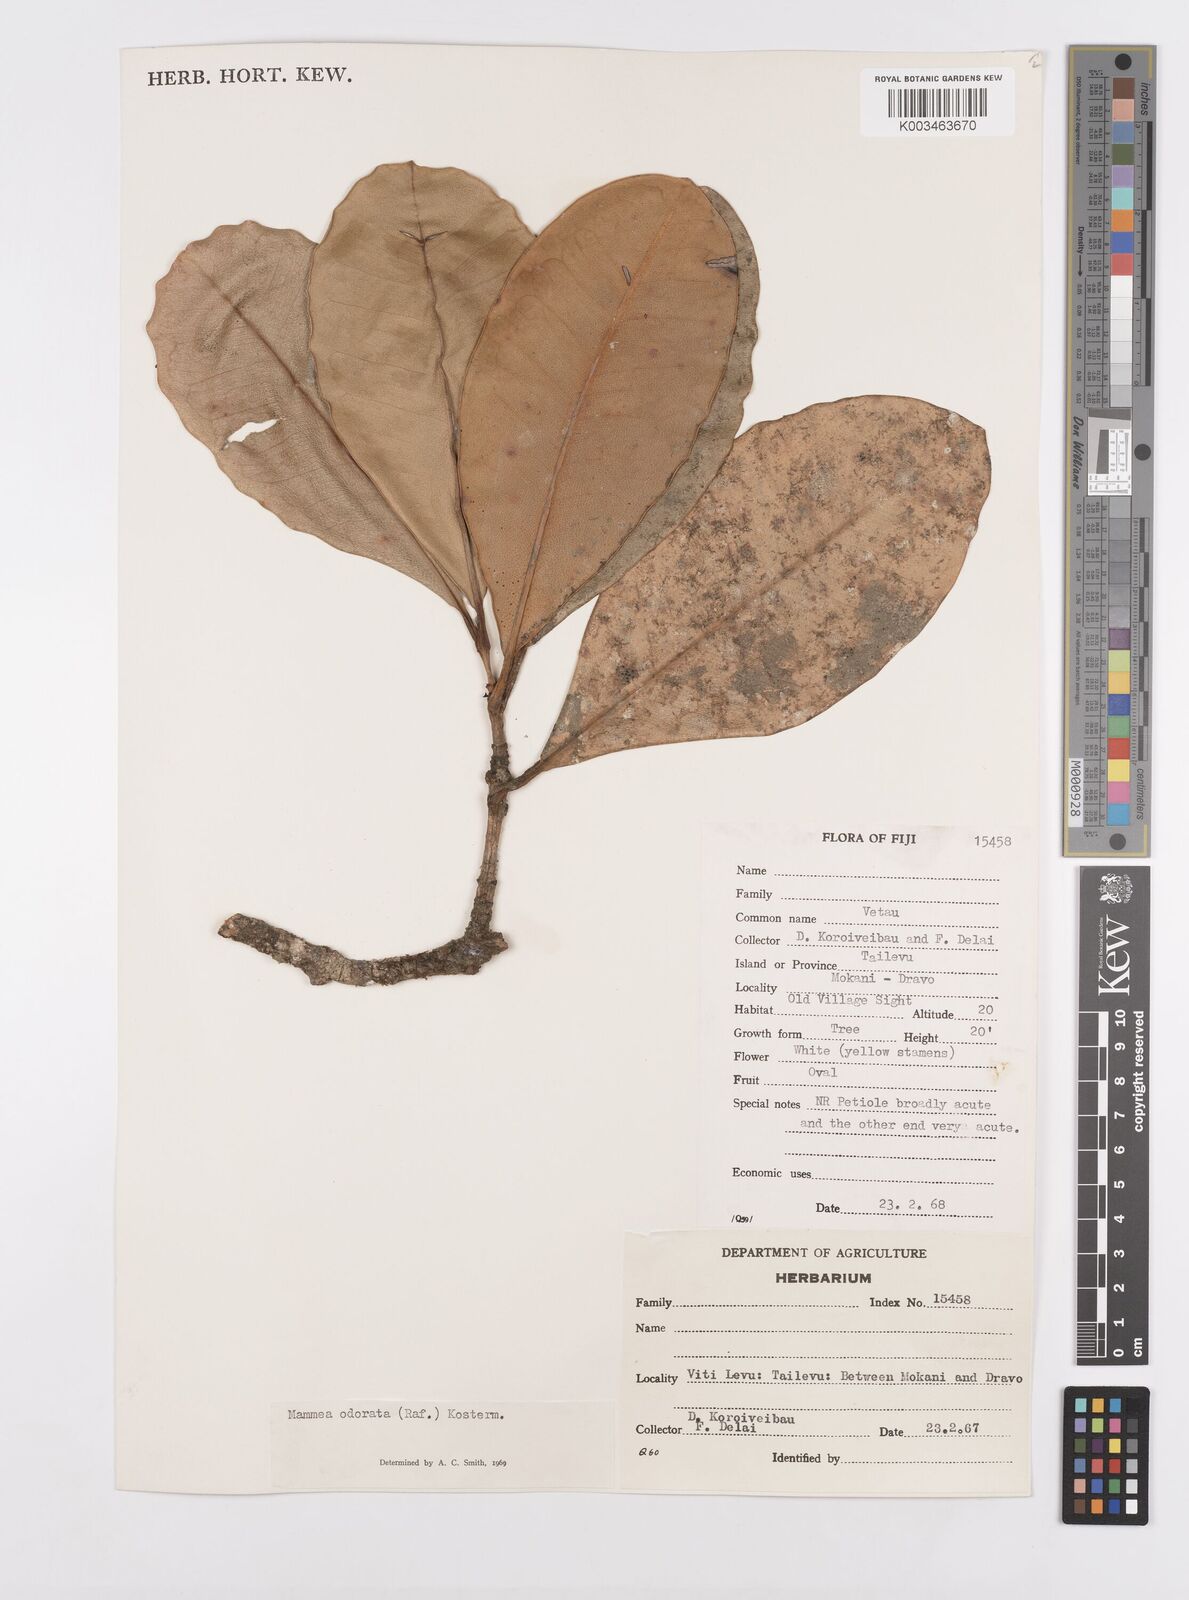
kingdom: Plantae
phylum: Tracheophyta
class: Magnoliopsida
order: Malpighiales
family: Calophyllaceae
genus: Mammea
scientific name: Mammea odorata
